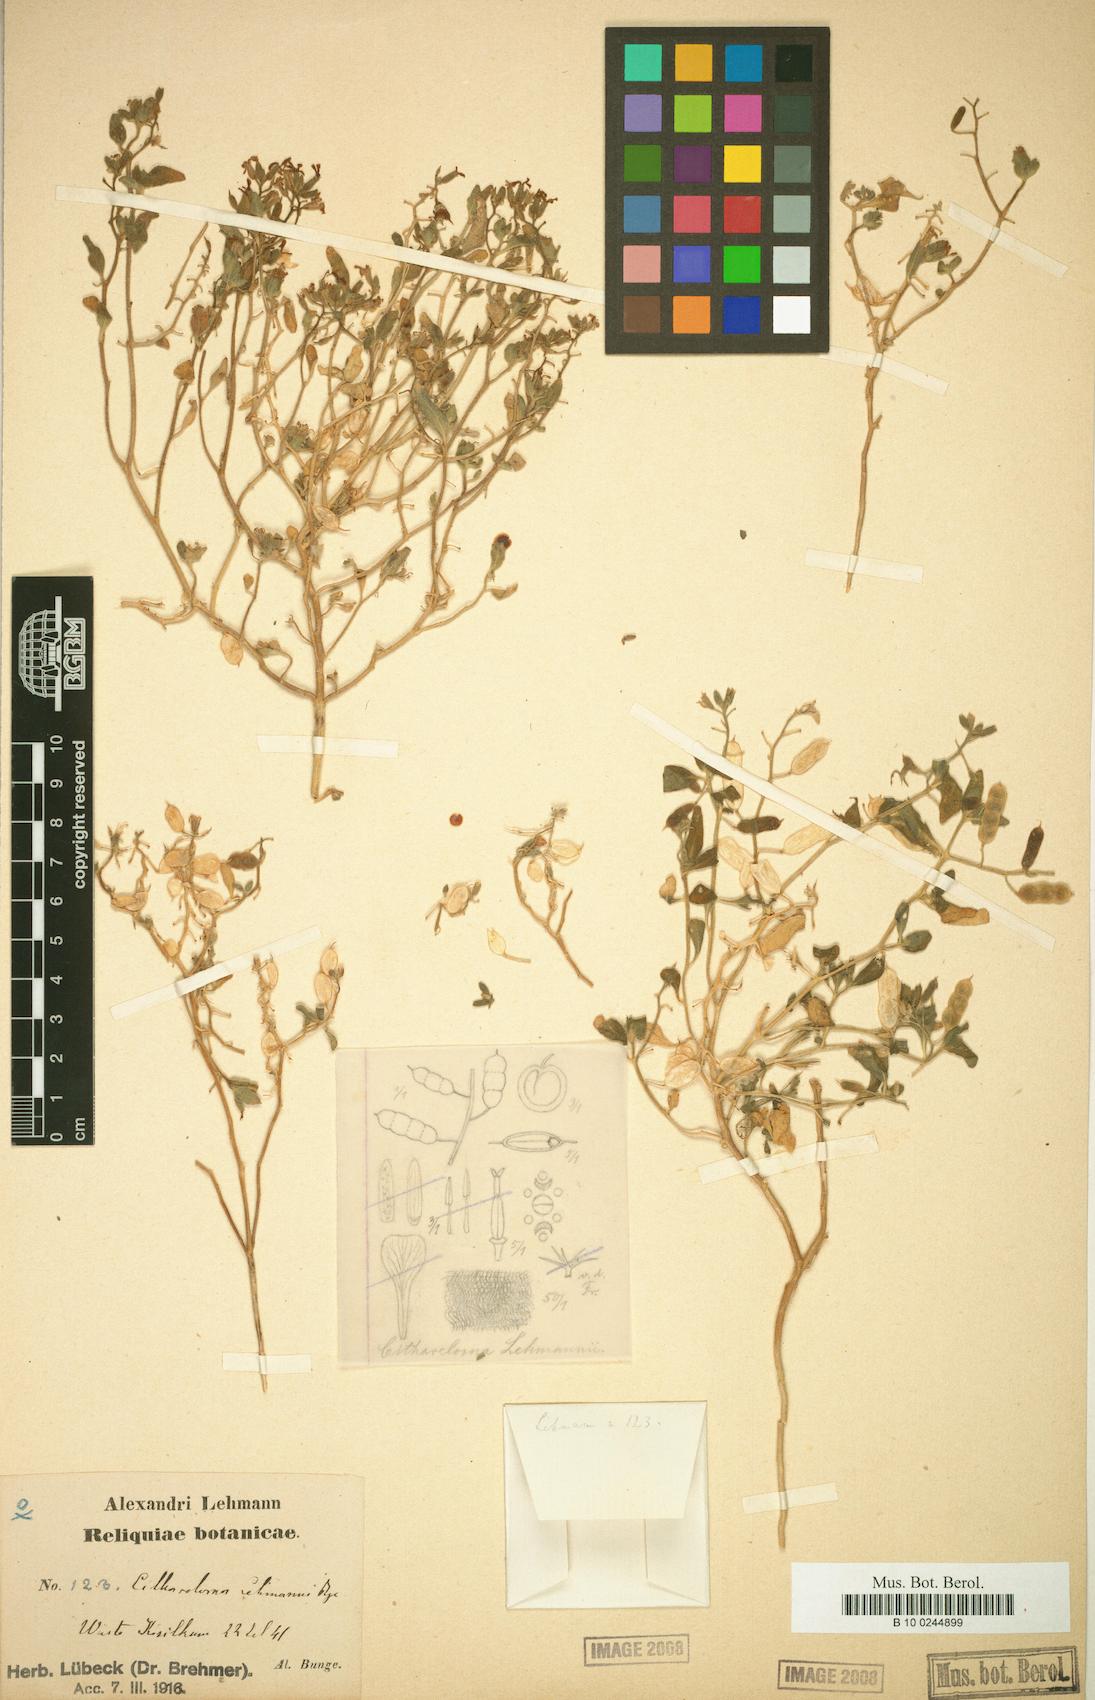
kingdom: Plantae
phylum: Tracheophyta
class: Magnoliopsida
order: Brassicales
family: Brassicaceae
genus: Cithareloma
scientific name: Cithareloma lehmannii
